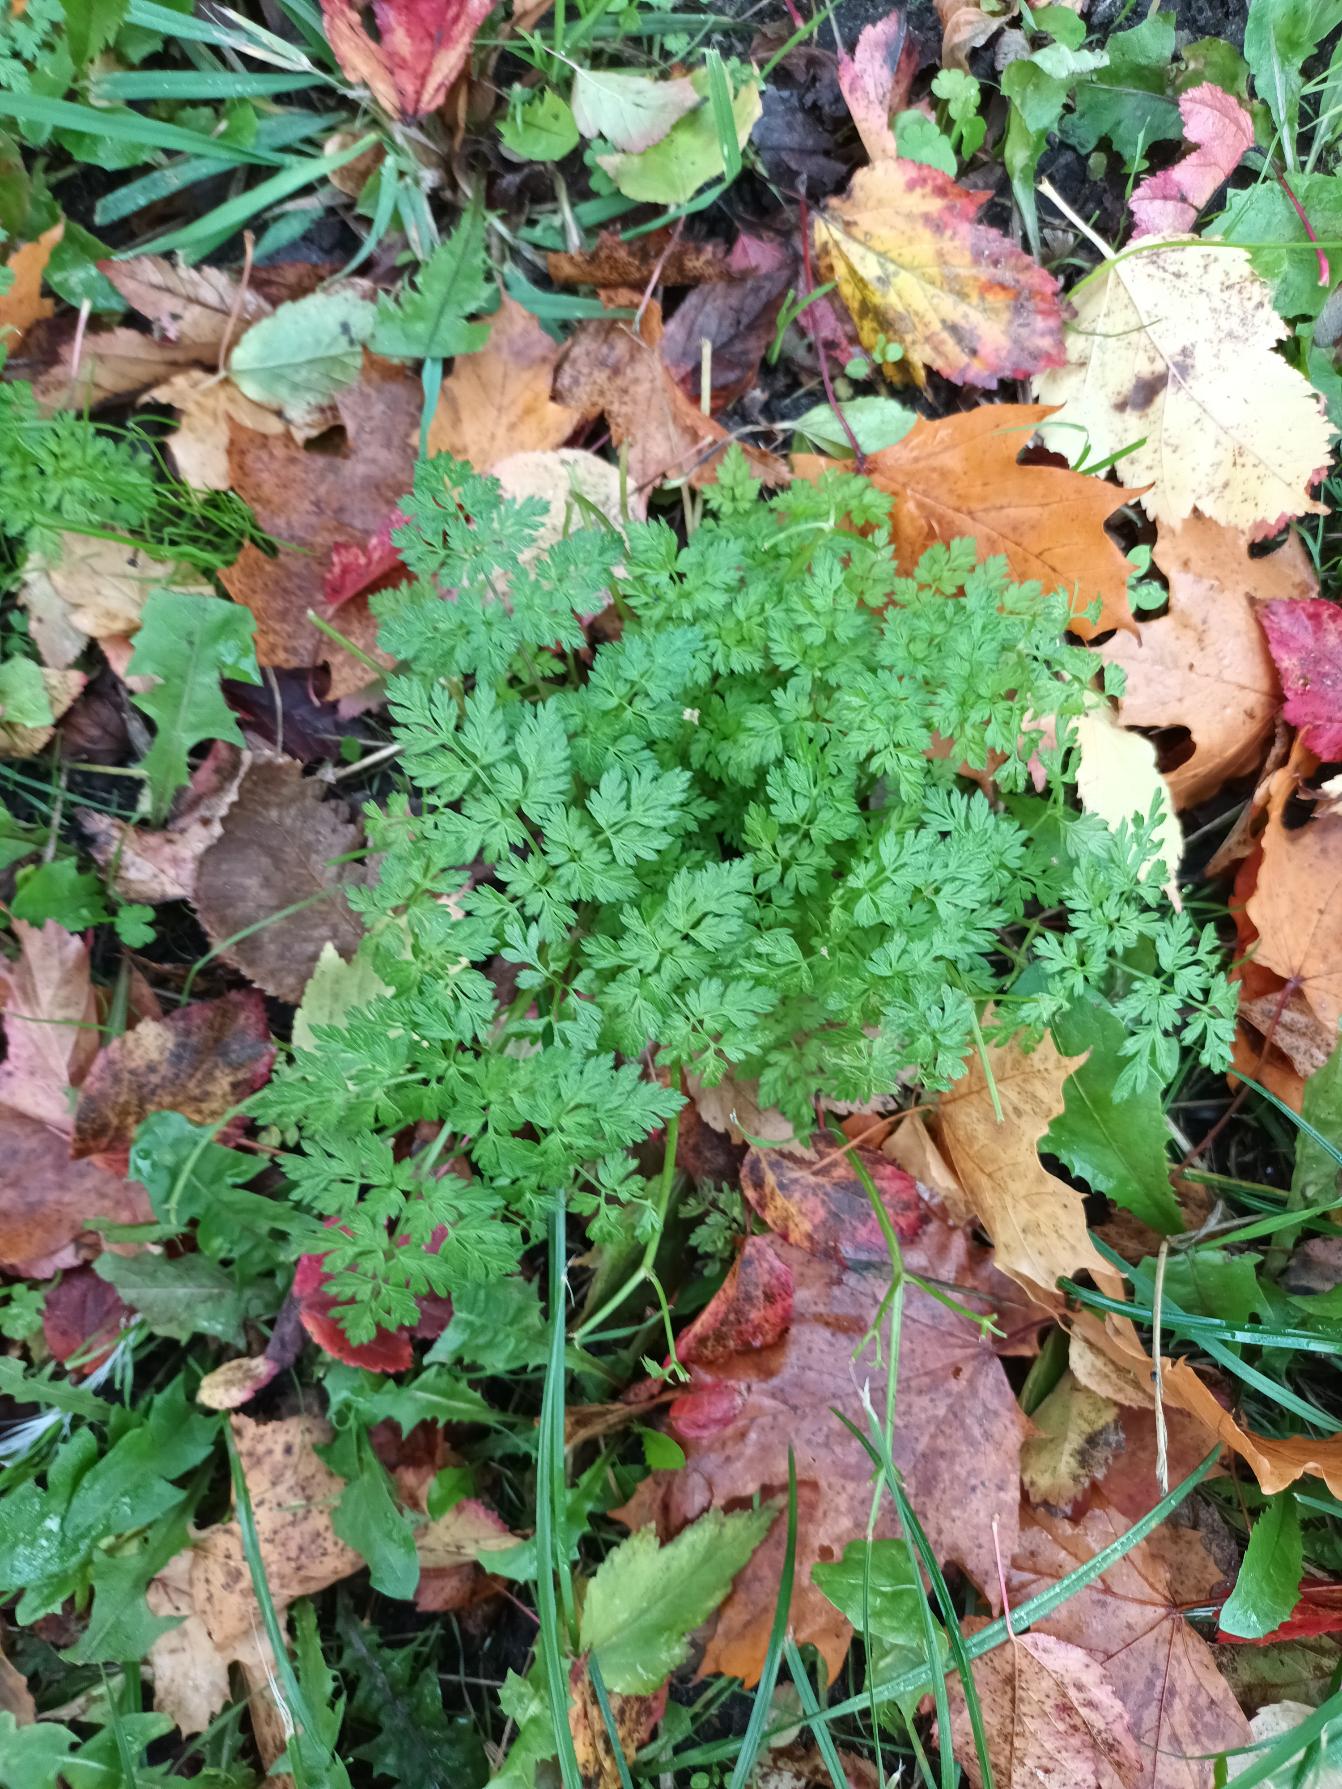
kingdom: Plantae
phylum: Tracheophyta
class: Magnoliopsida
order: Apiales
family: Apiaceae
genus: Anthriscus
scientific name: Anthriscus sylvestris
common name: Vild kørvel
